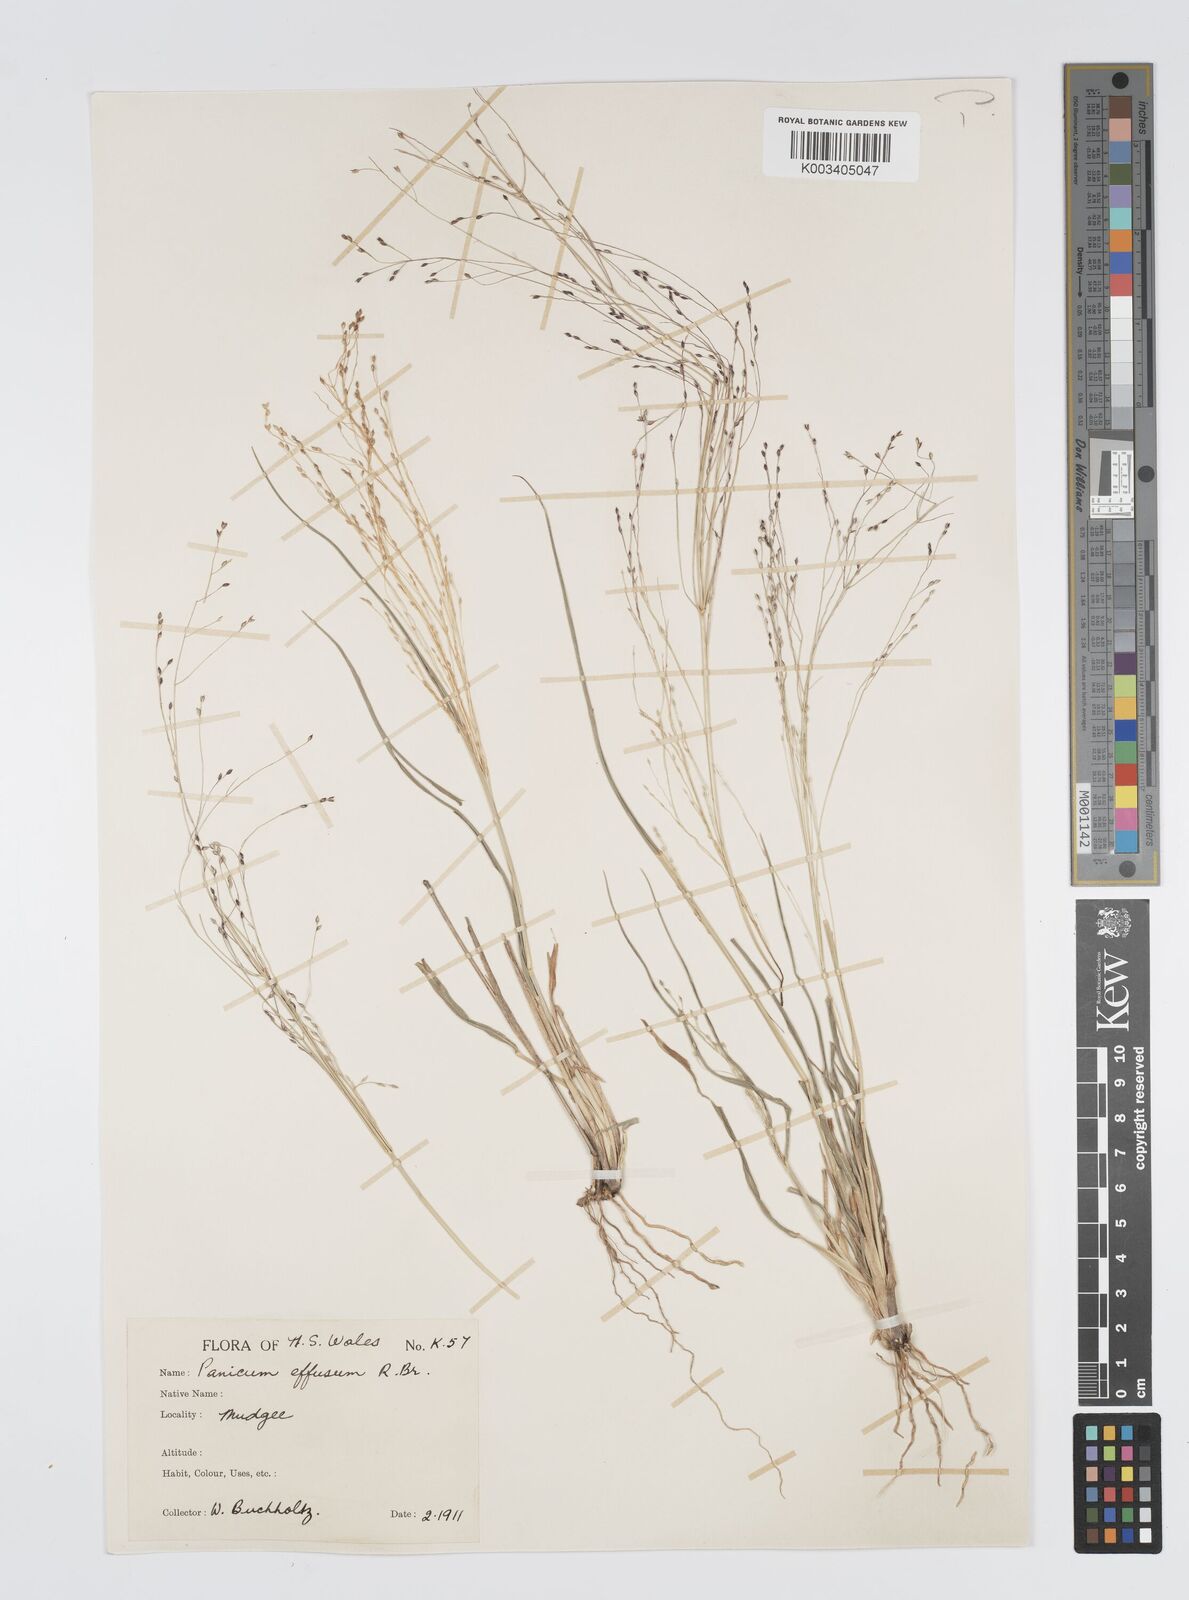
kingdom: Plantae
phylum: Tracheophyta
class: Liliopsida
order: Poales
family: Poaceae
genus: Panicum
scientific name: Panicum effusum
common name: Hairy panic grass
